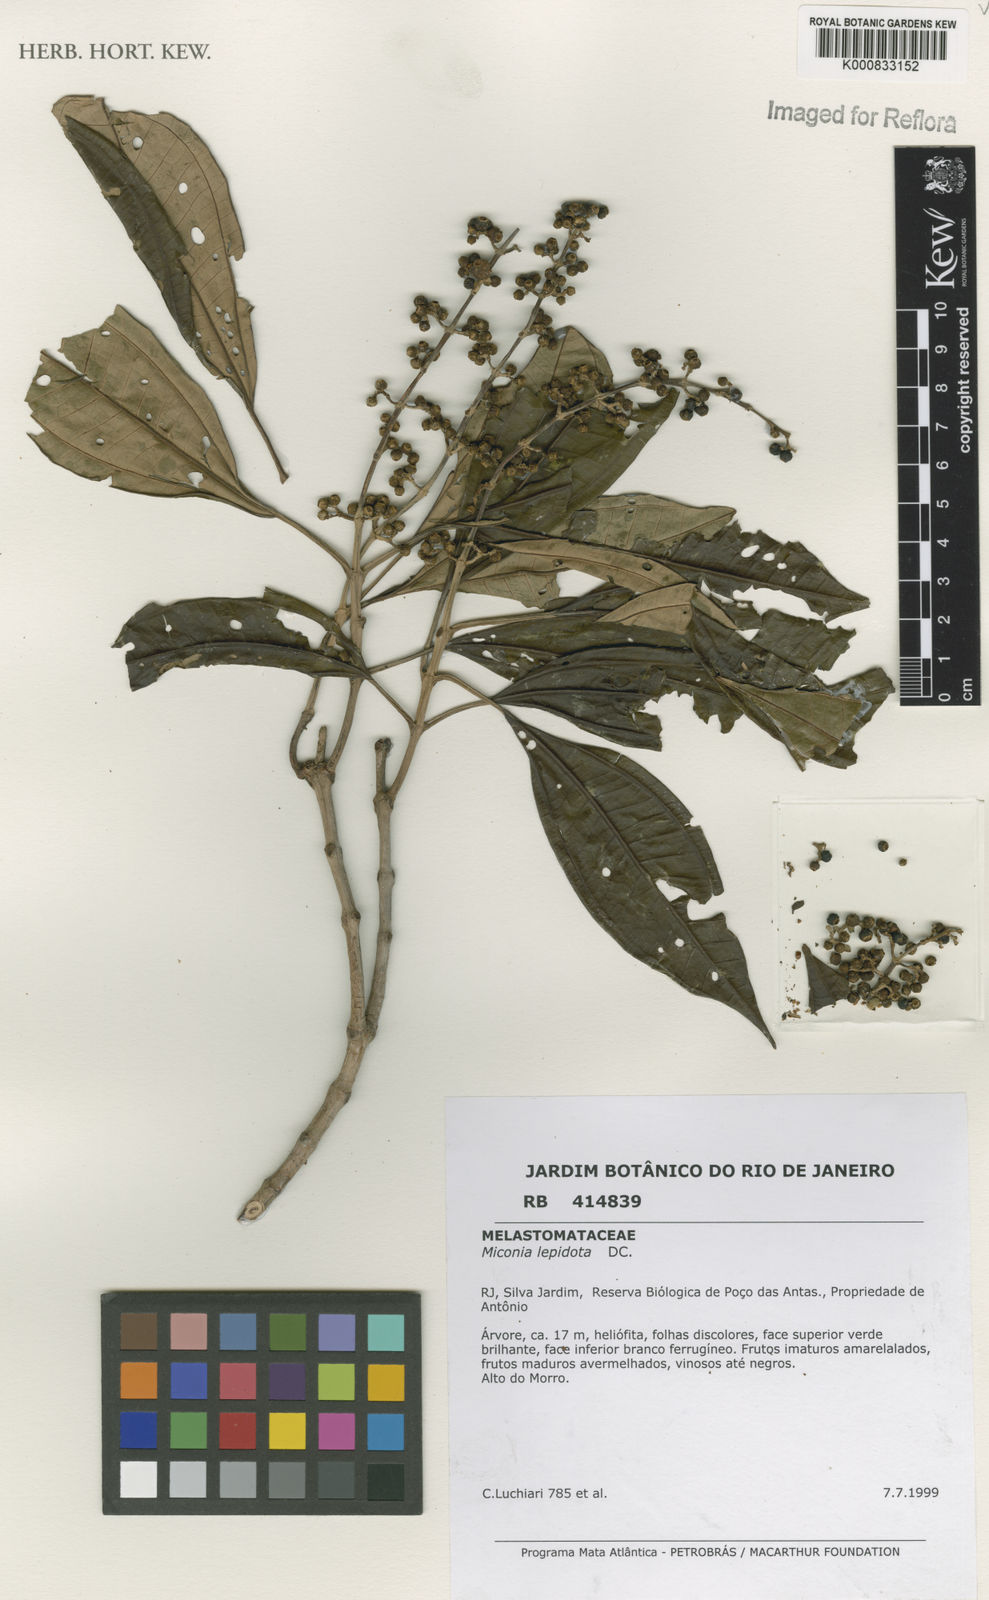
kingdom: Plantae
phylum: Tracheophyta
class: Magnoliopsida
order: Myrtales
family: Melastomataceae
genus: Miconia
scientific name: Miconia lepidota
